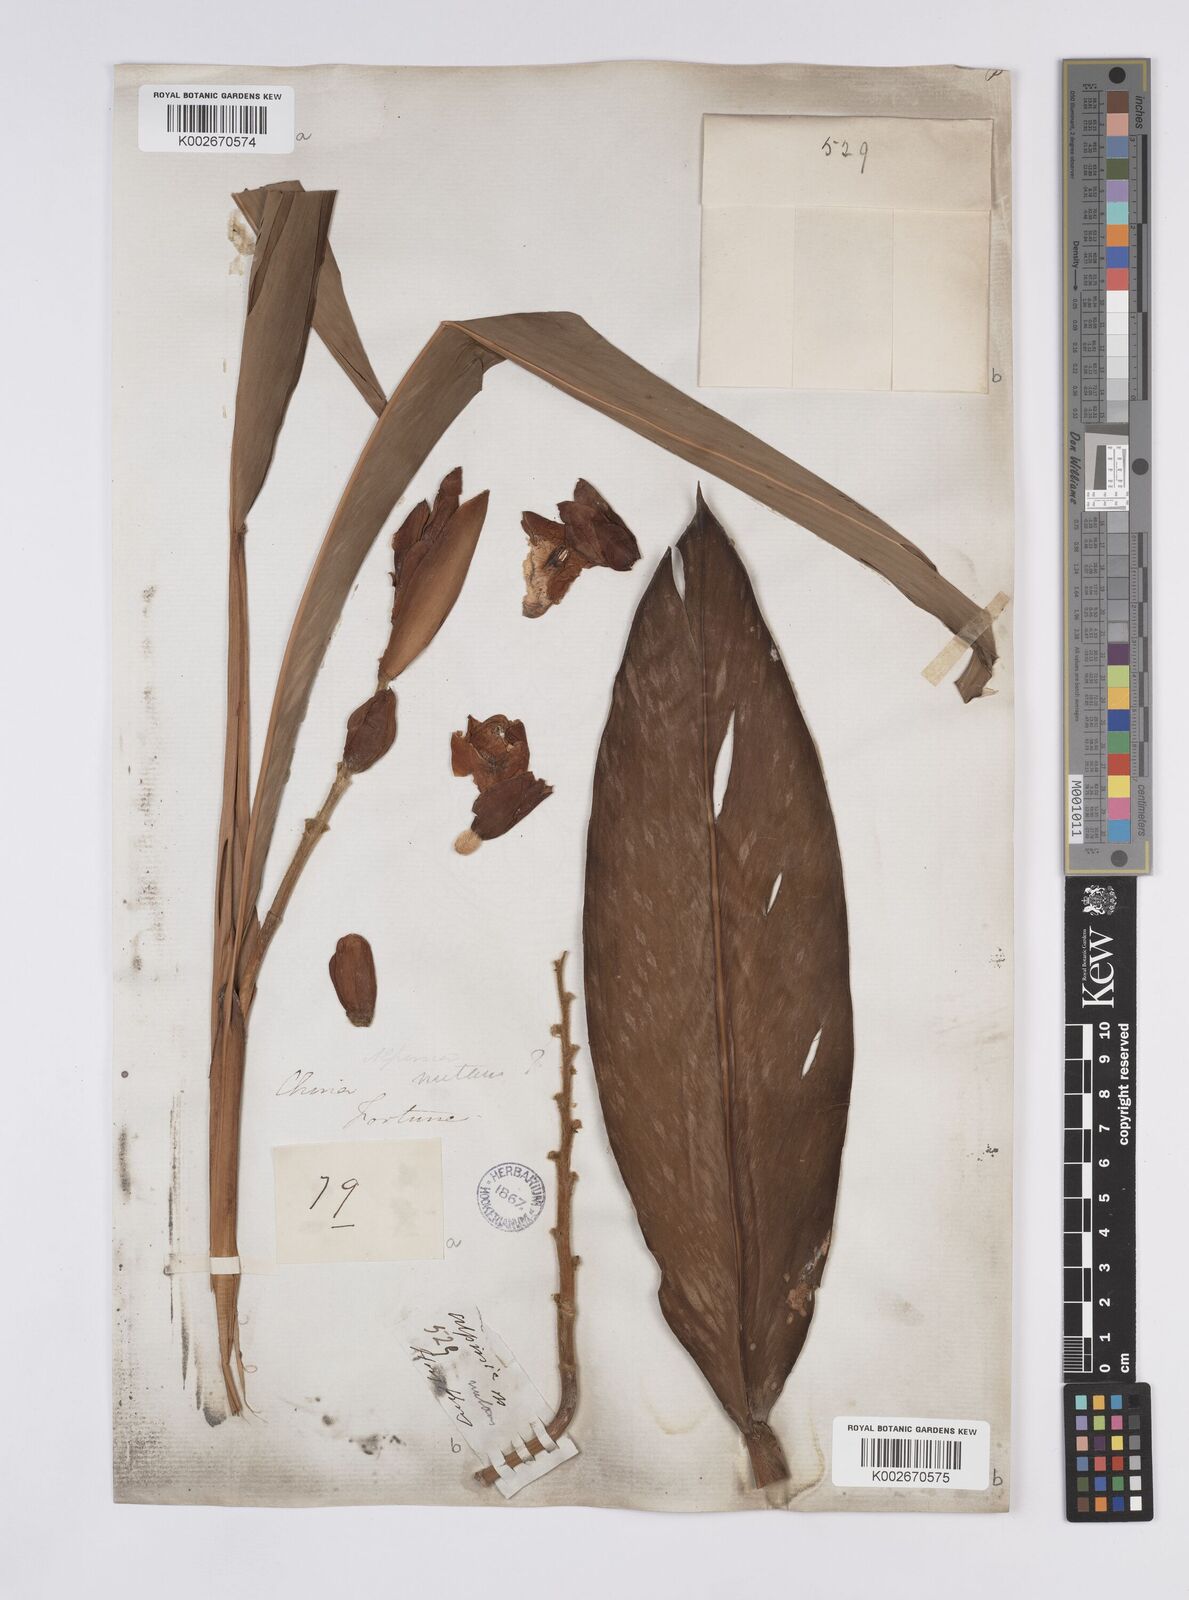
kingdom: Plantae
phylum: Tracheophyta
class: Liliopsida
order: Zingiberales
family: Zingiberaceae
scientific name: Zingiberaceae
